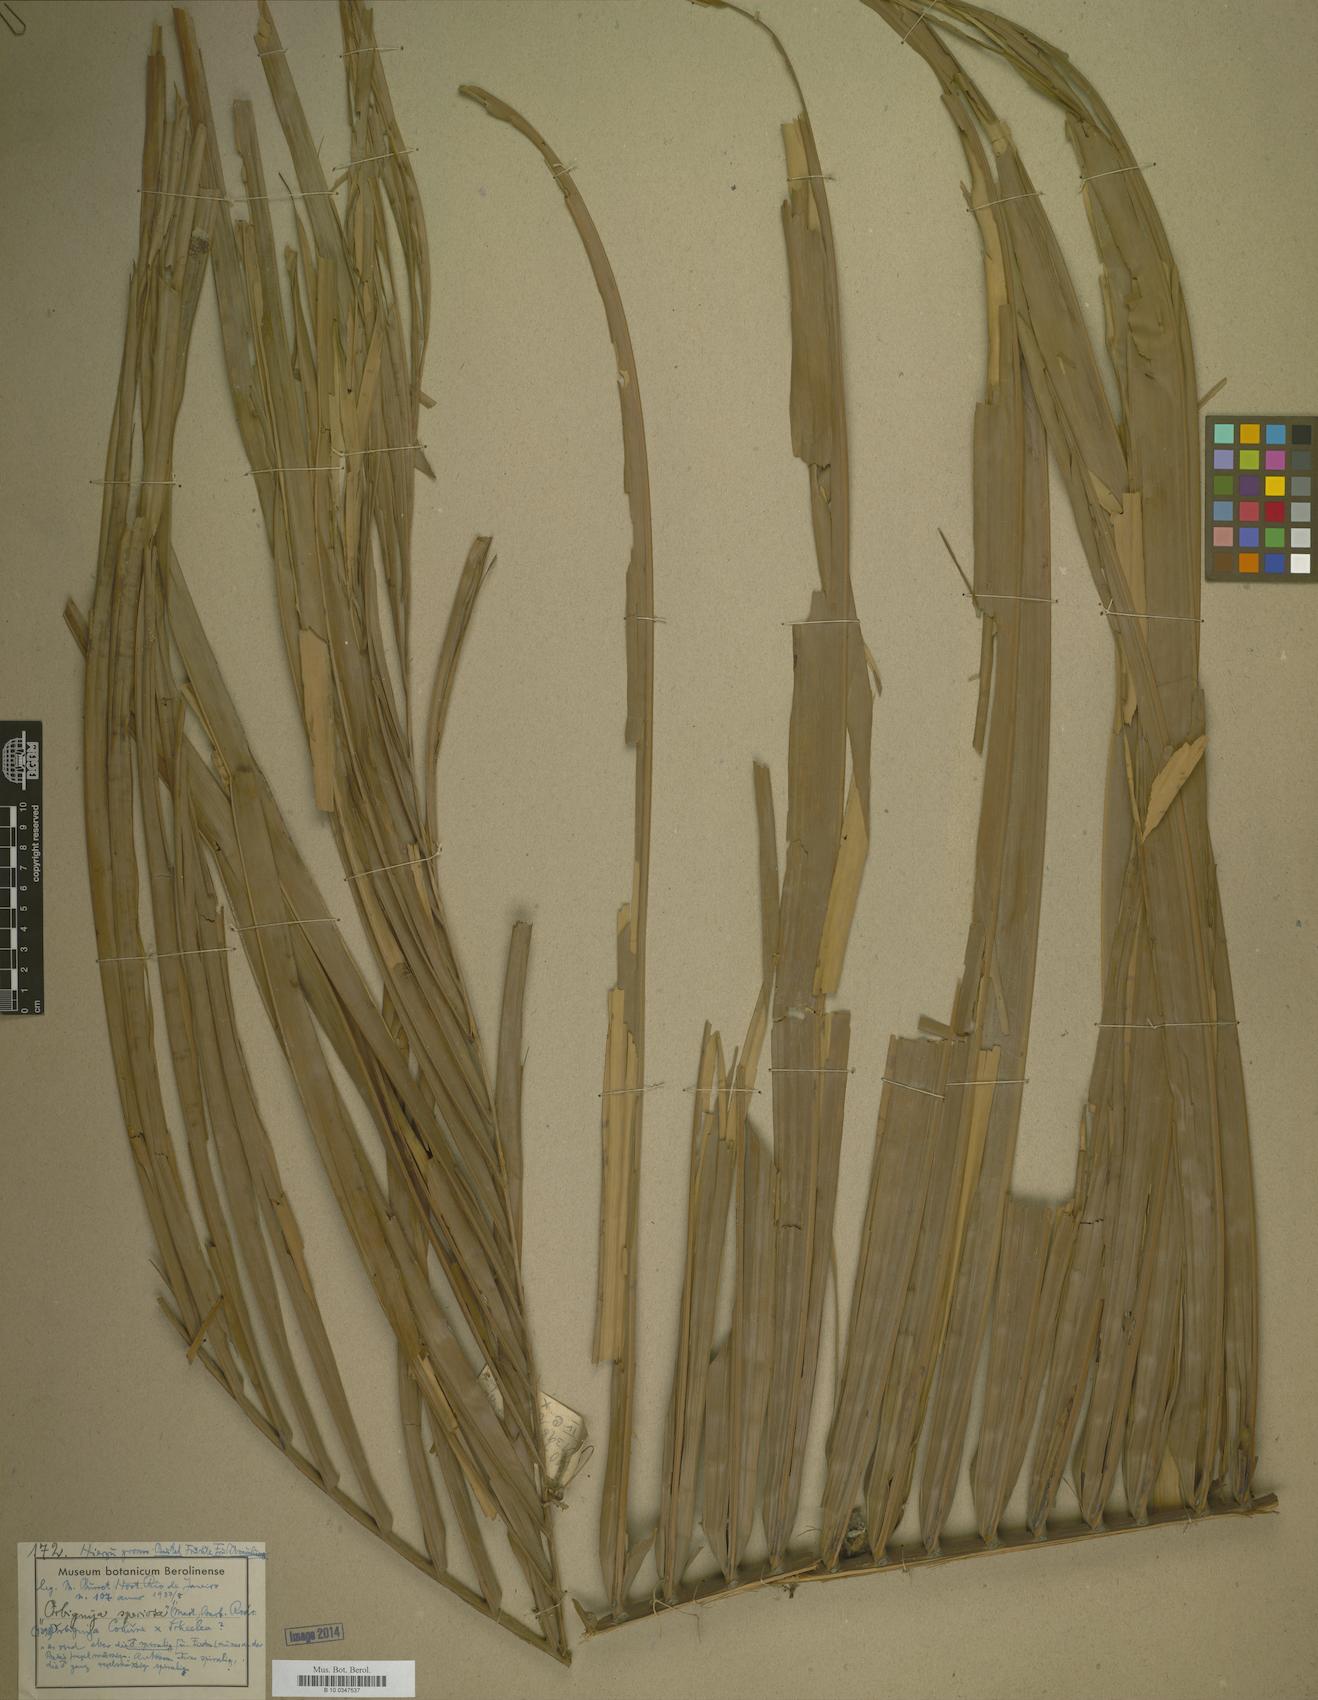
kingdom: Plantae
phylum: Tracheophyta
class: Magnoliopsida
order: Sapindales
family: Sapindaceae
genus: Orbignya
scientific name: Orbignya
